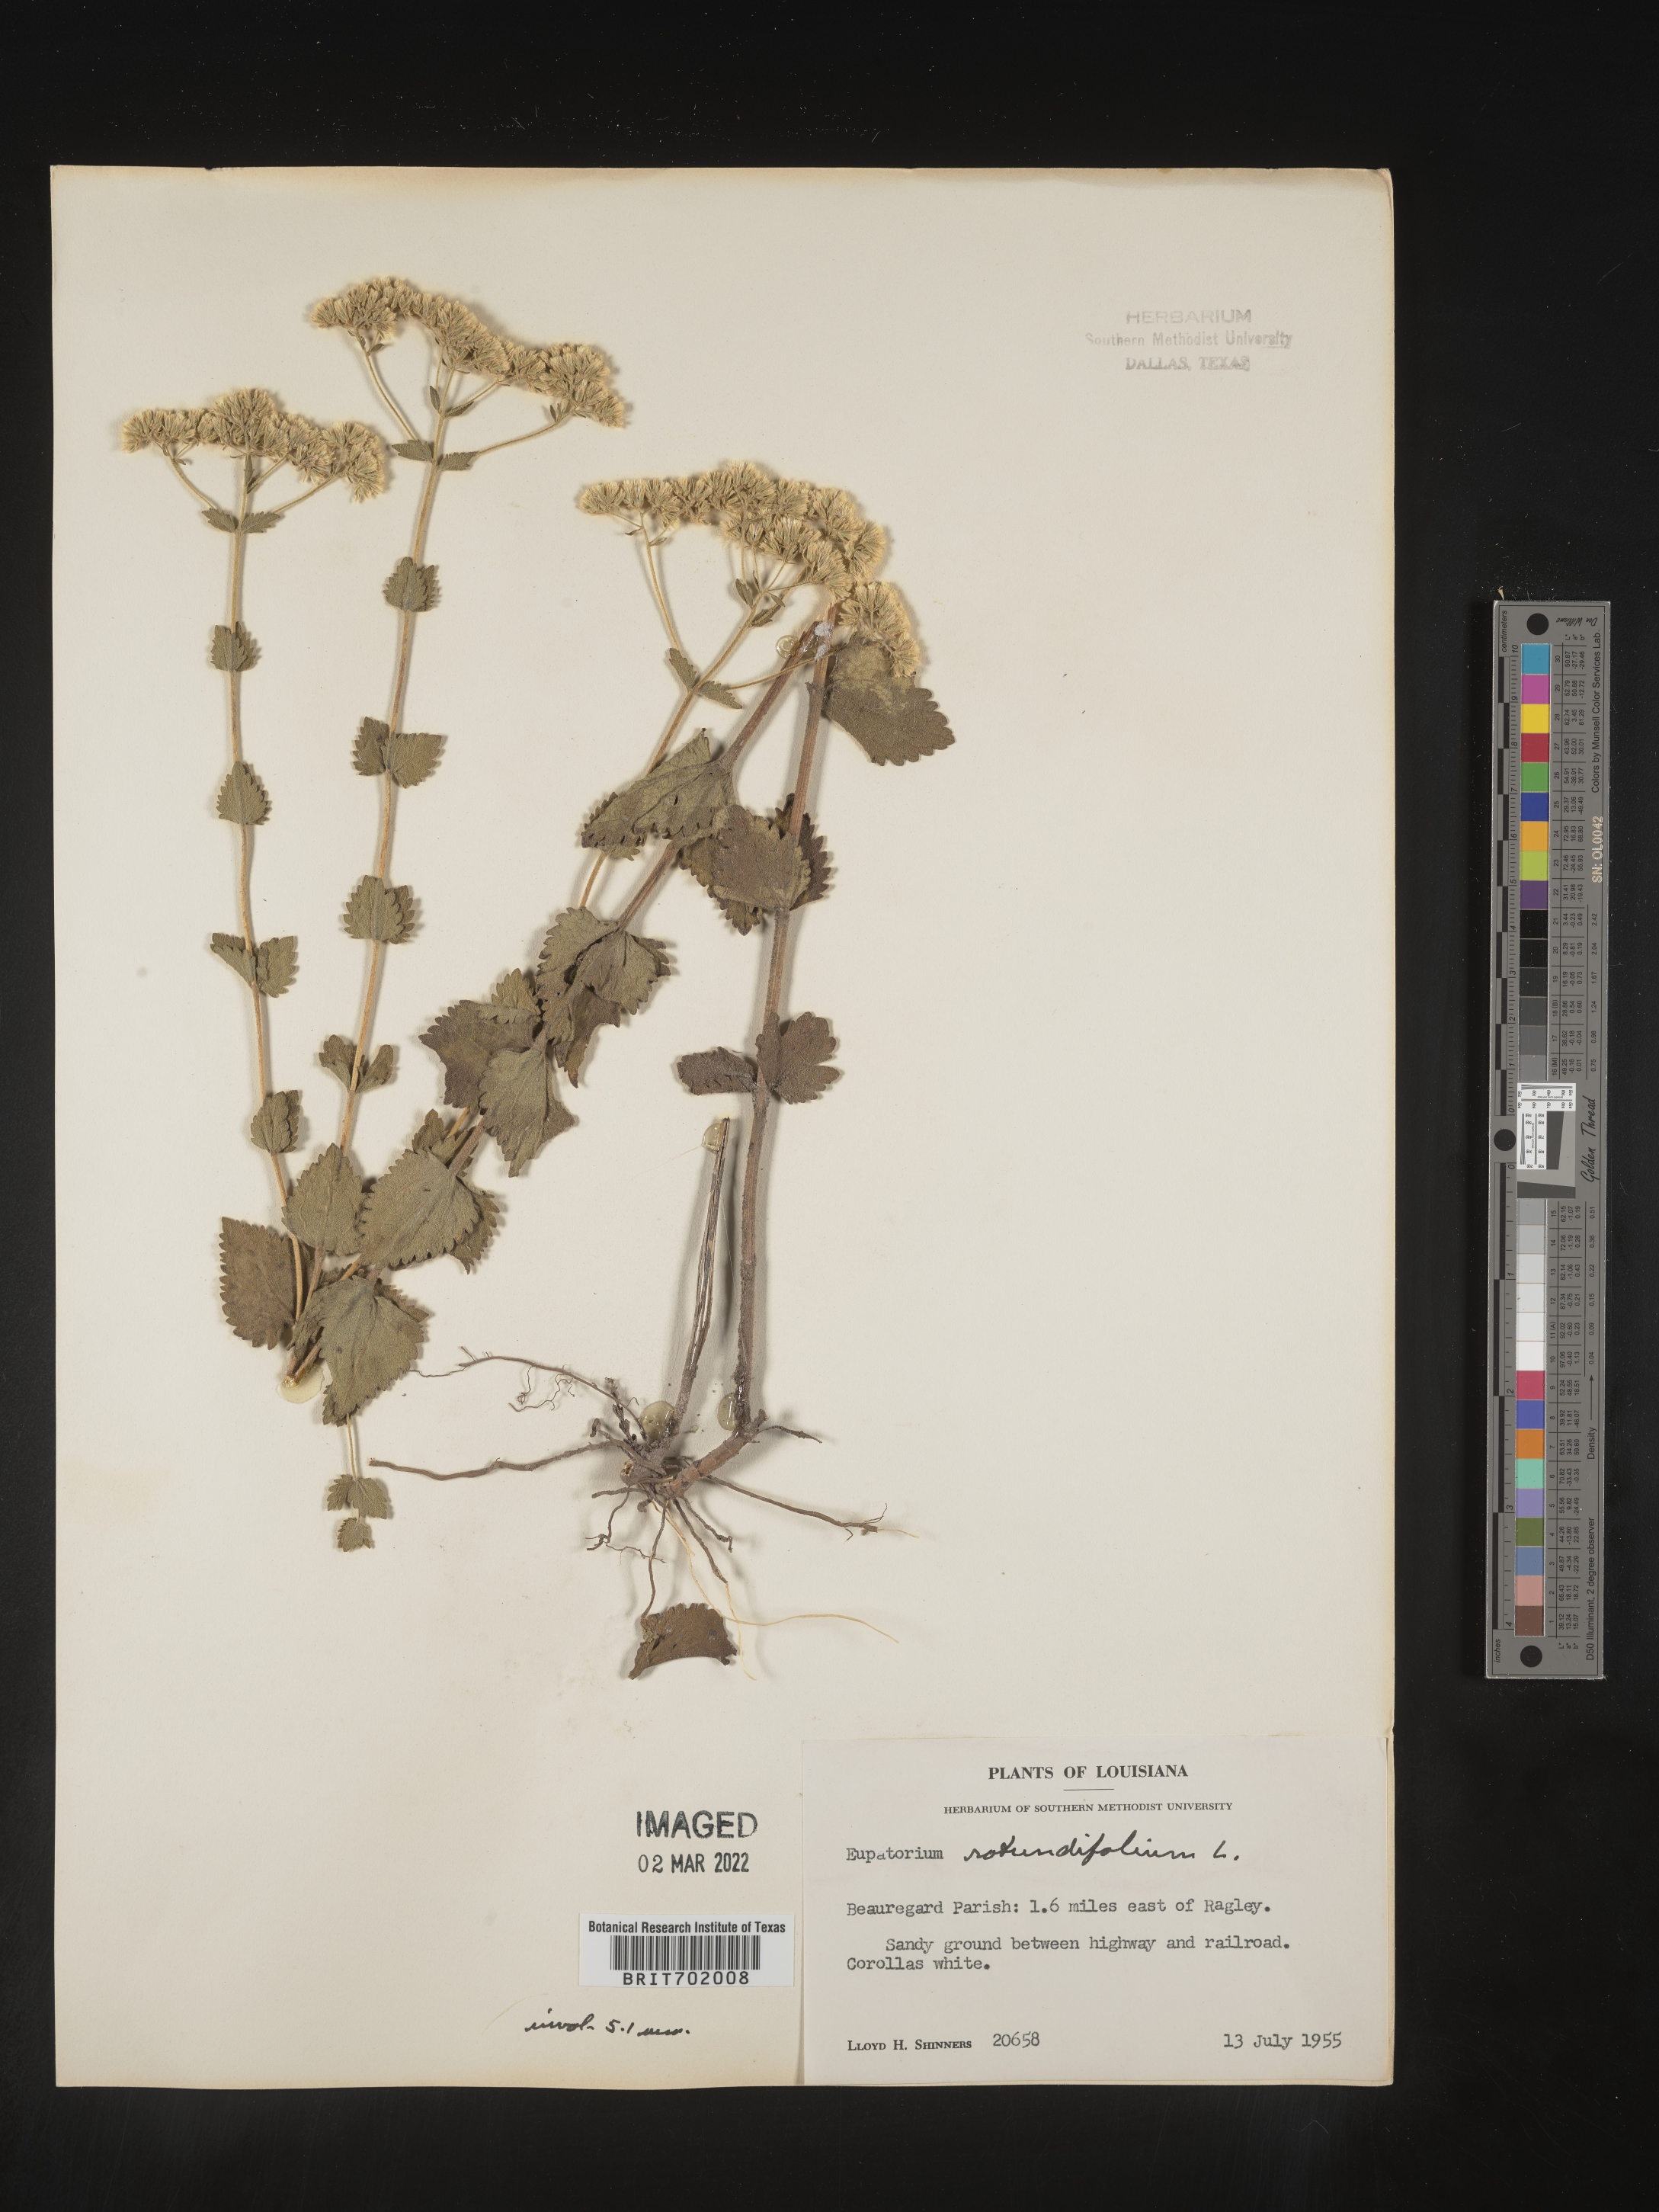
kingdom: Plantae
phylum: Tracheophyta
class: Magnoliopsida
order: Asterales
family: Asteraceae
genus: Eupatorium
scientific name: Eupatorium rotundifolium
